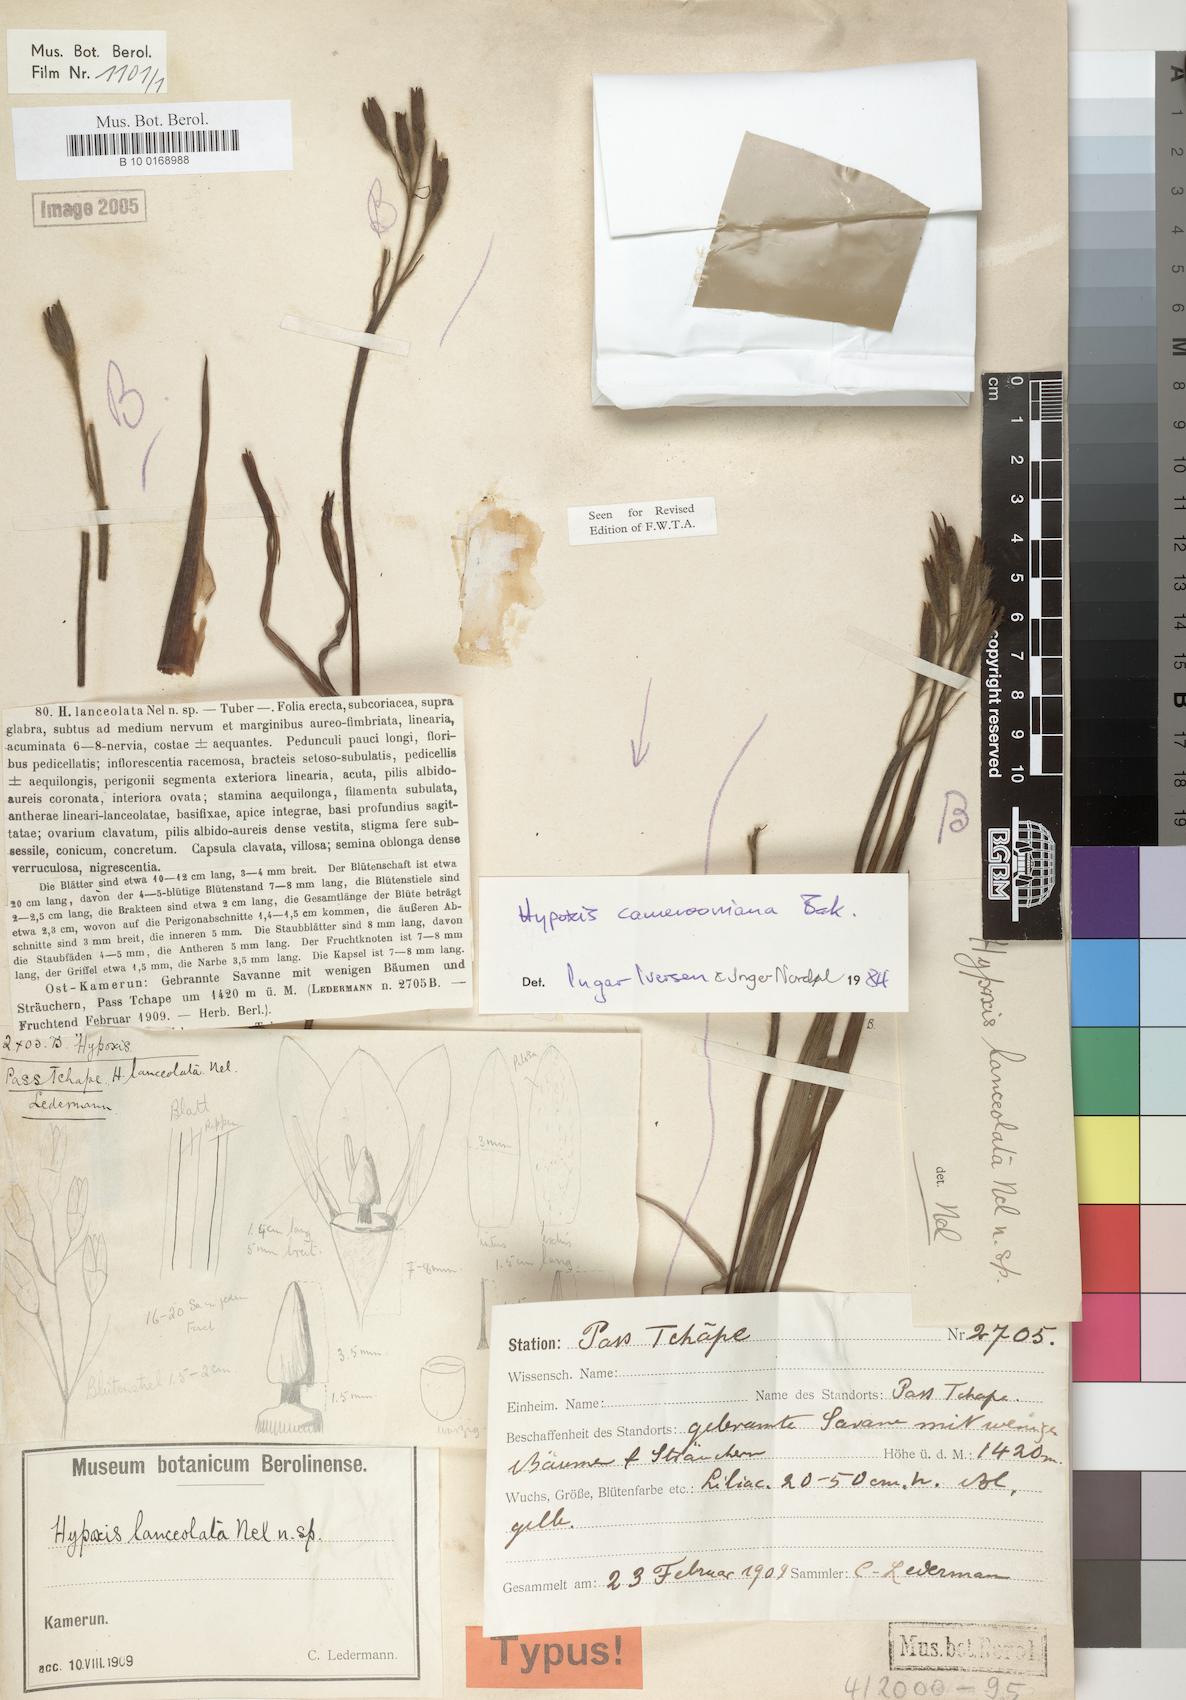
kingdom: Plantae
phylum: Tracheophyta
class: Liliopsida
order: Asparagales
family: Hypoxidaceae
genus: Hypoxis
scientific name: Hypoxis camerooniana
